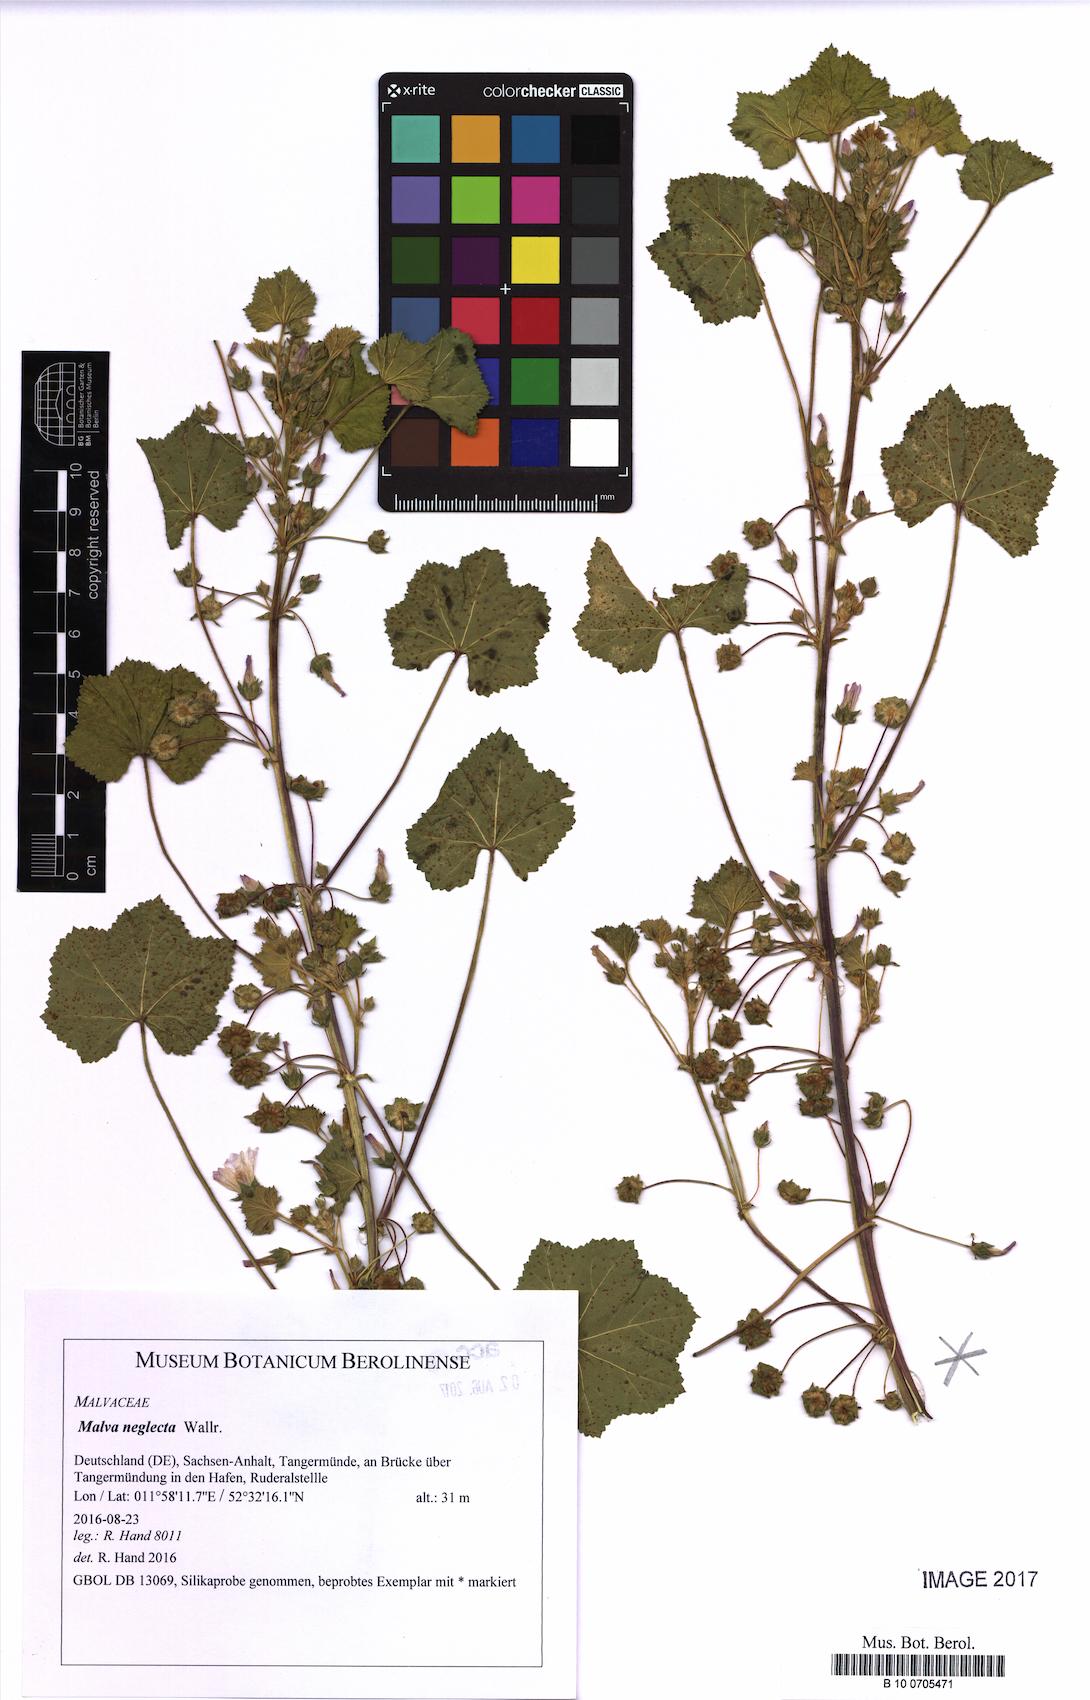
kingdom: Plantae
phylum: Tracheophyta
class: Magnoliopsida
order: Malvales
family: Malvaceae
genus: Malva
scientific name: Malva neglecta
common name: Common mallow
